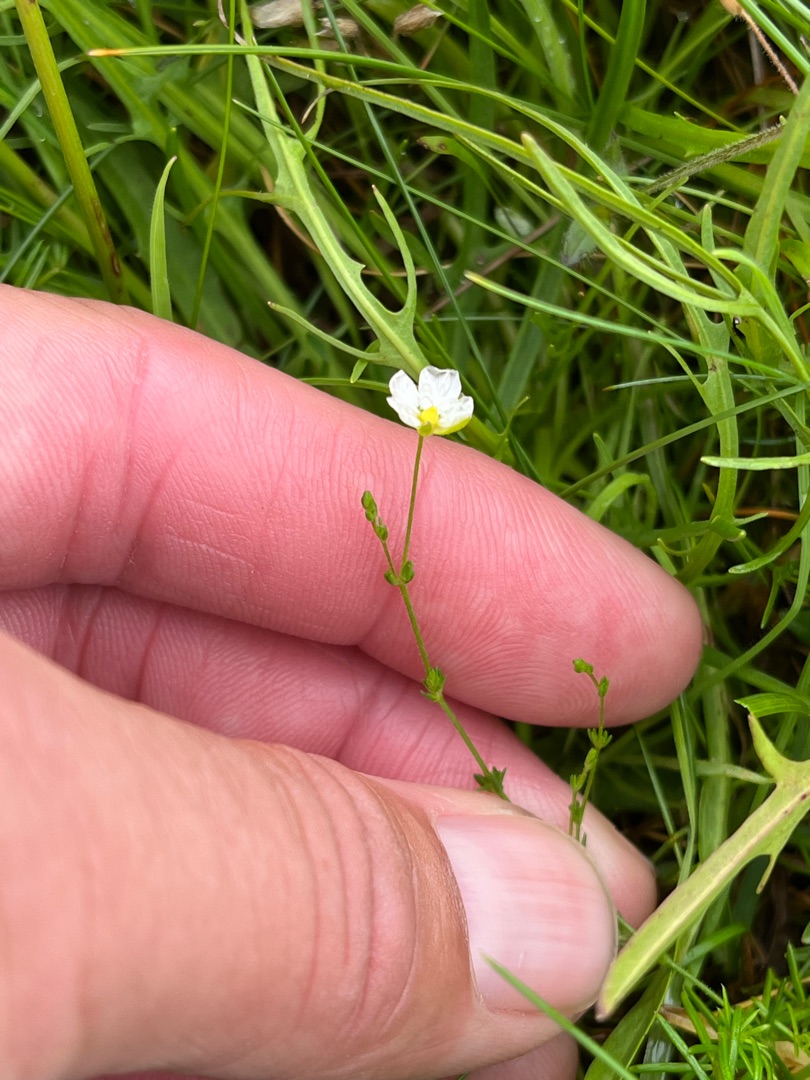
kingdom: Plantae
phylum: Tracheophyta
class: Magnoliopsida
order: Caryophyllales
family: Caryophyllaceae
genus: Sagina
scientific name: Sagina nodosa
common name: Knude-firling
